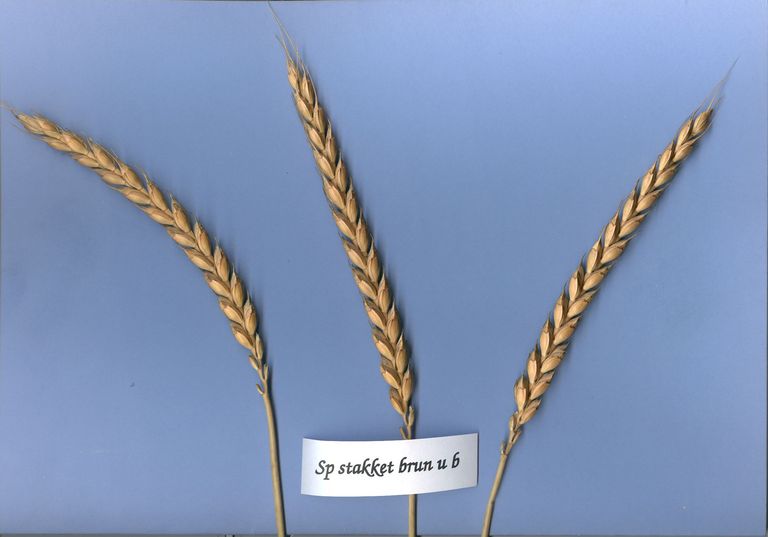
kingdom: Plantae
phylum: Tracheophyta
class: Liliopsida
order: Poales
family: Poaceae
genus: Triticum
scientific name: Triticum aestivum
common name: Common wheat
